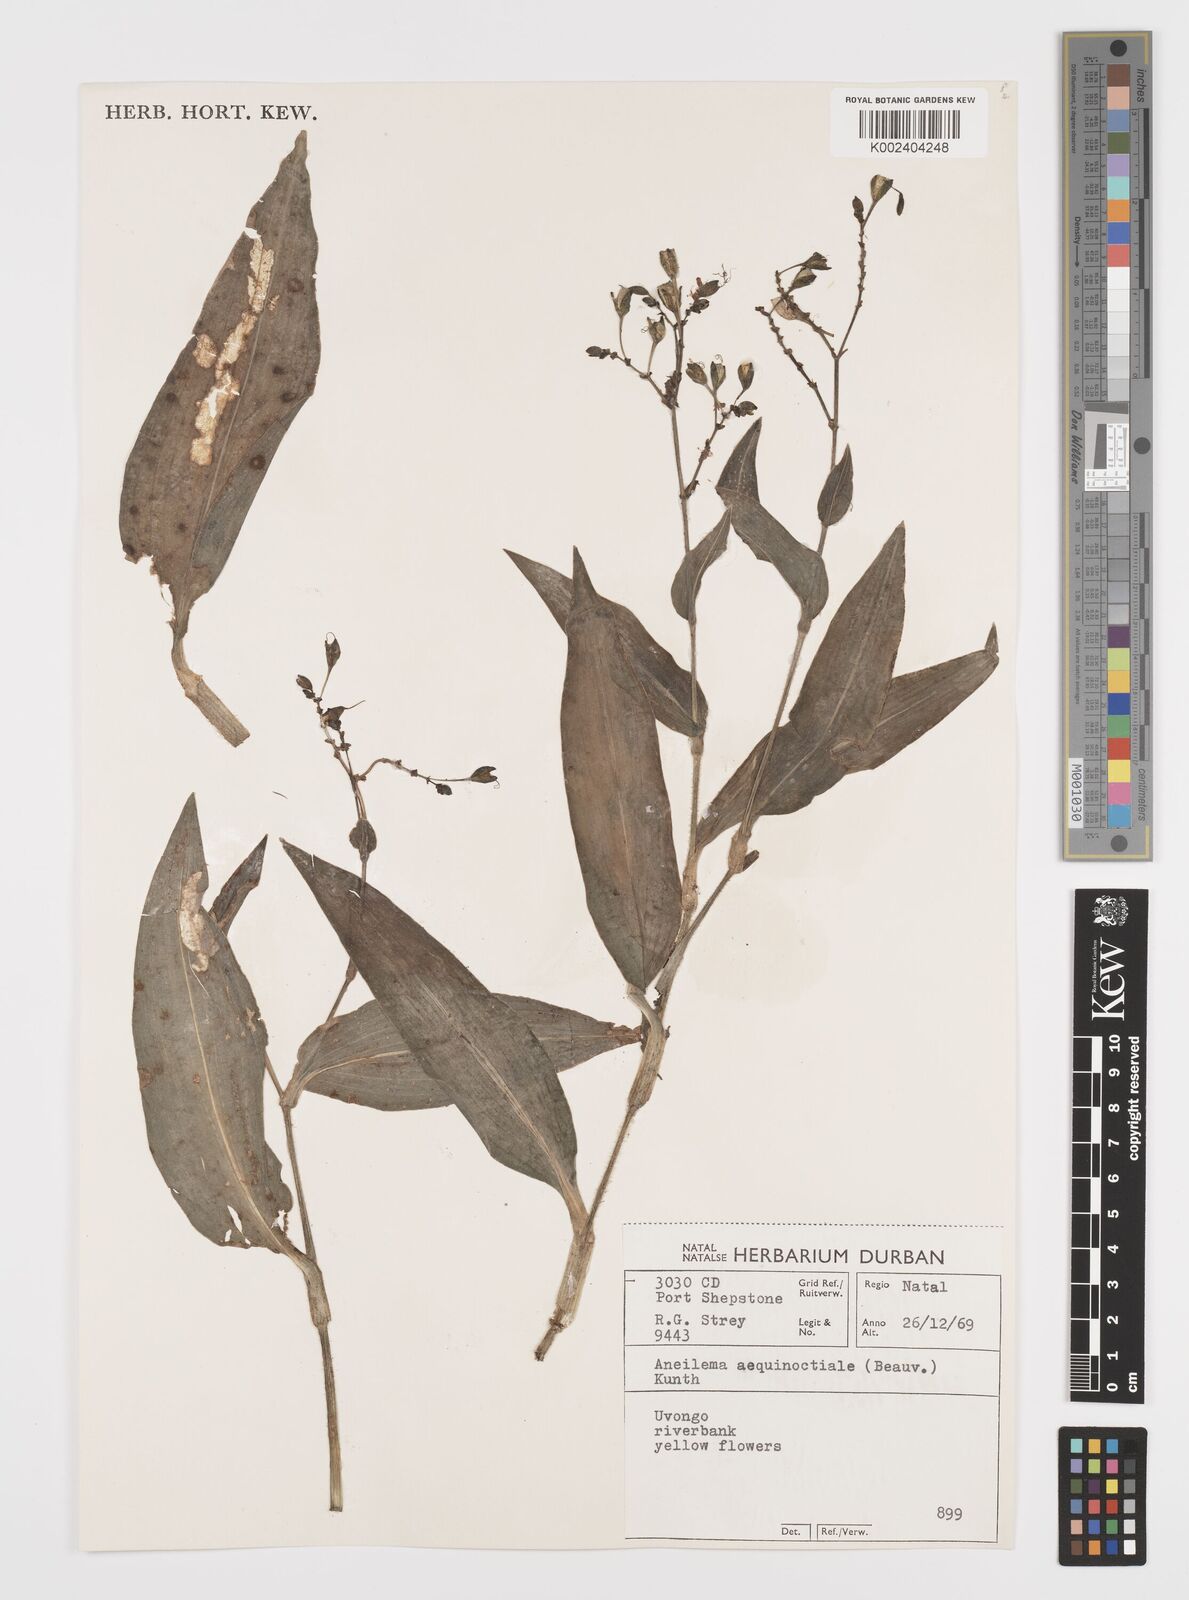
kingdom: Plantae
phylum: Tracheophyta
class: Liliopsida
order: Commelinales
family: Commelinaceae
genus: Aneilema
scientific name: Aneilema aequinoctiale
